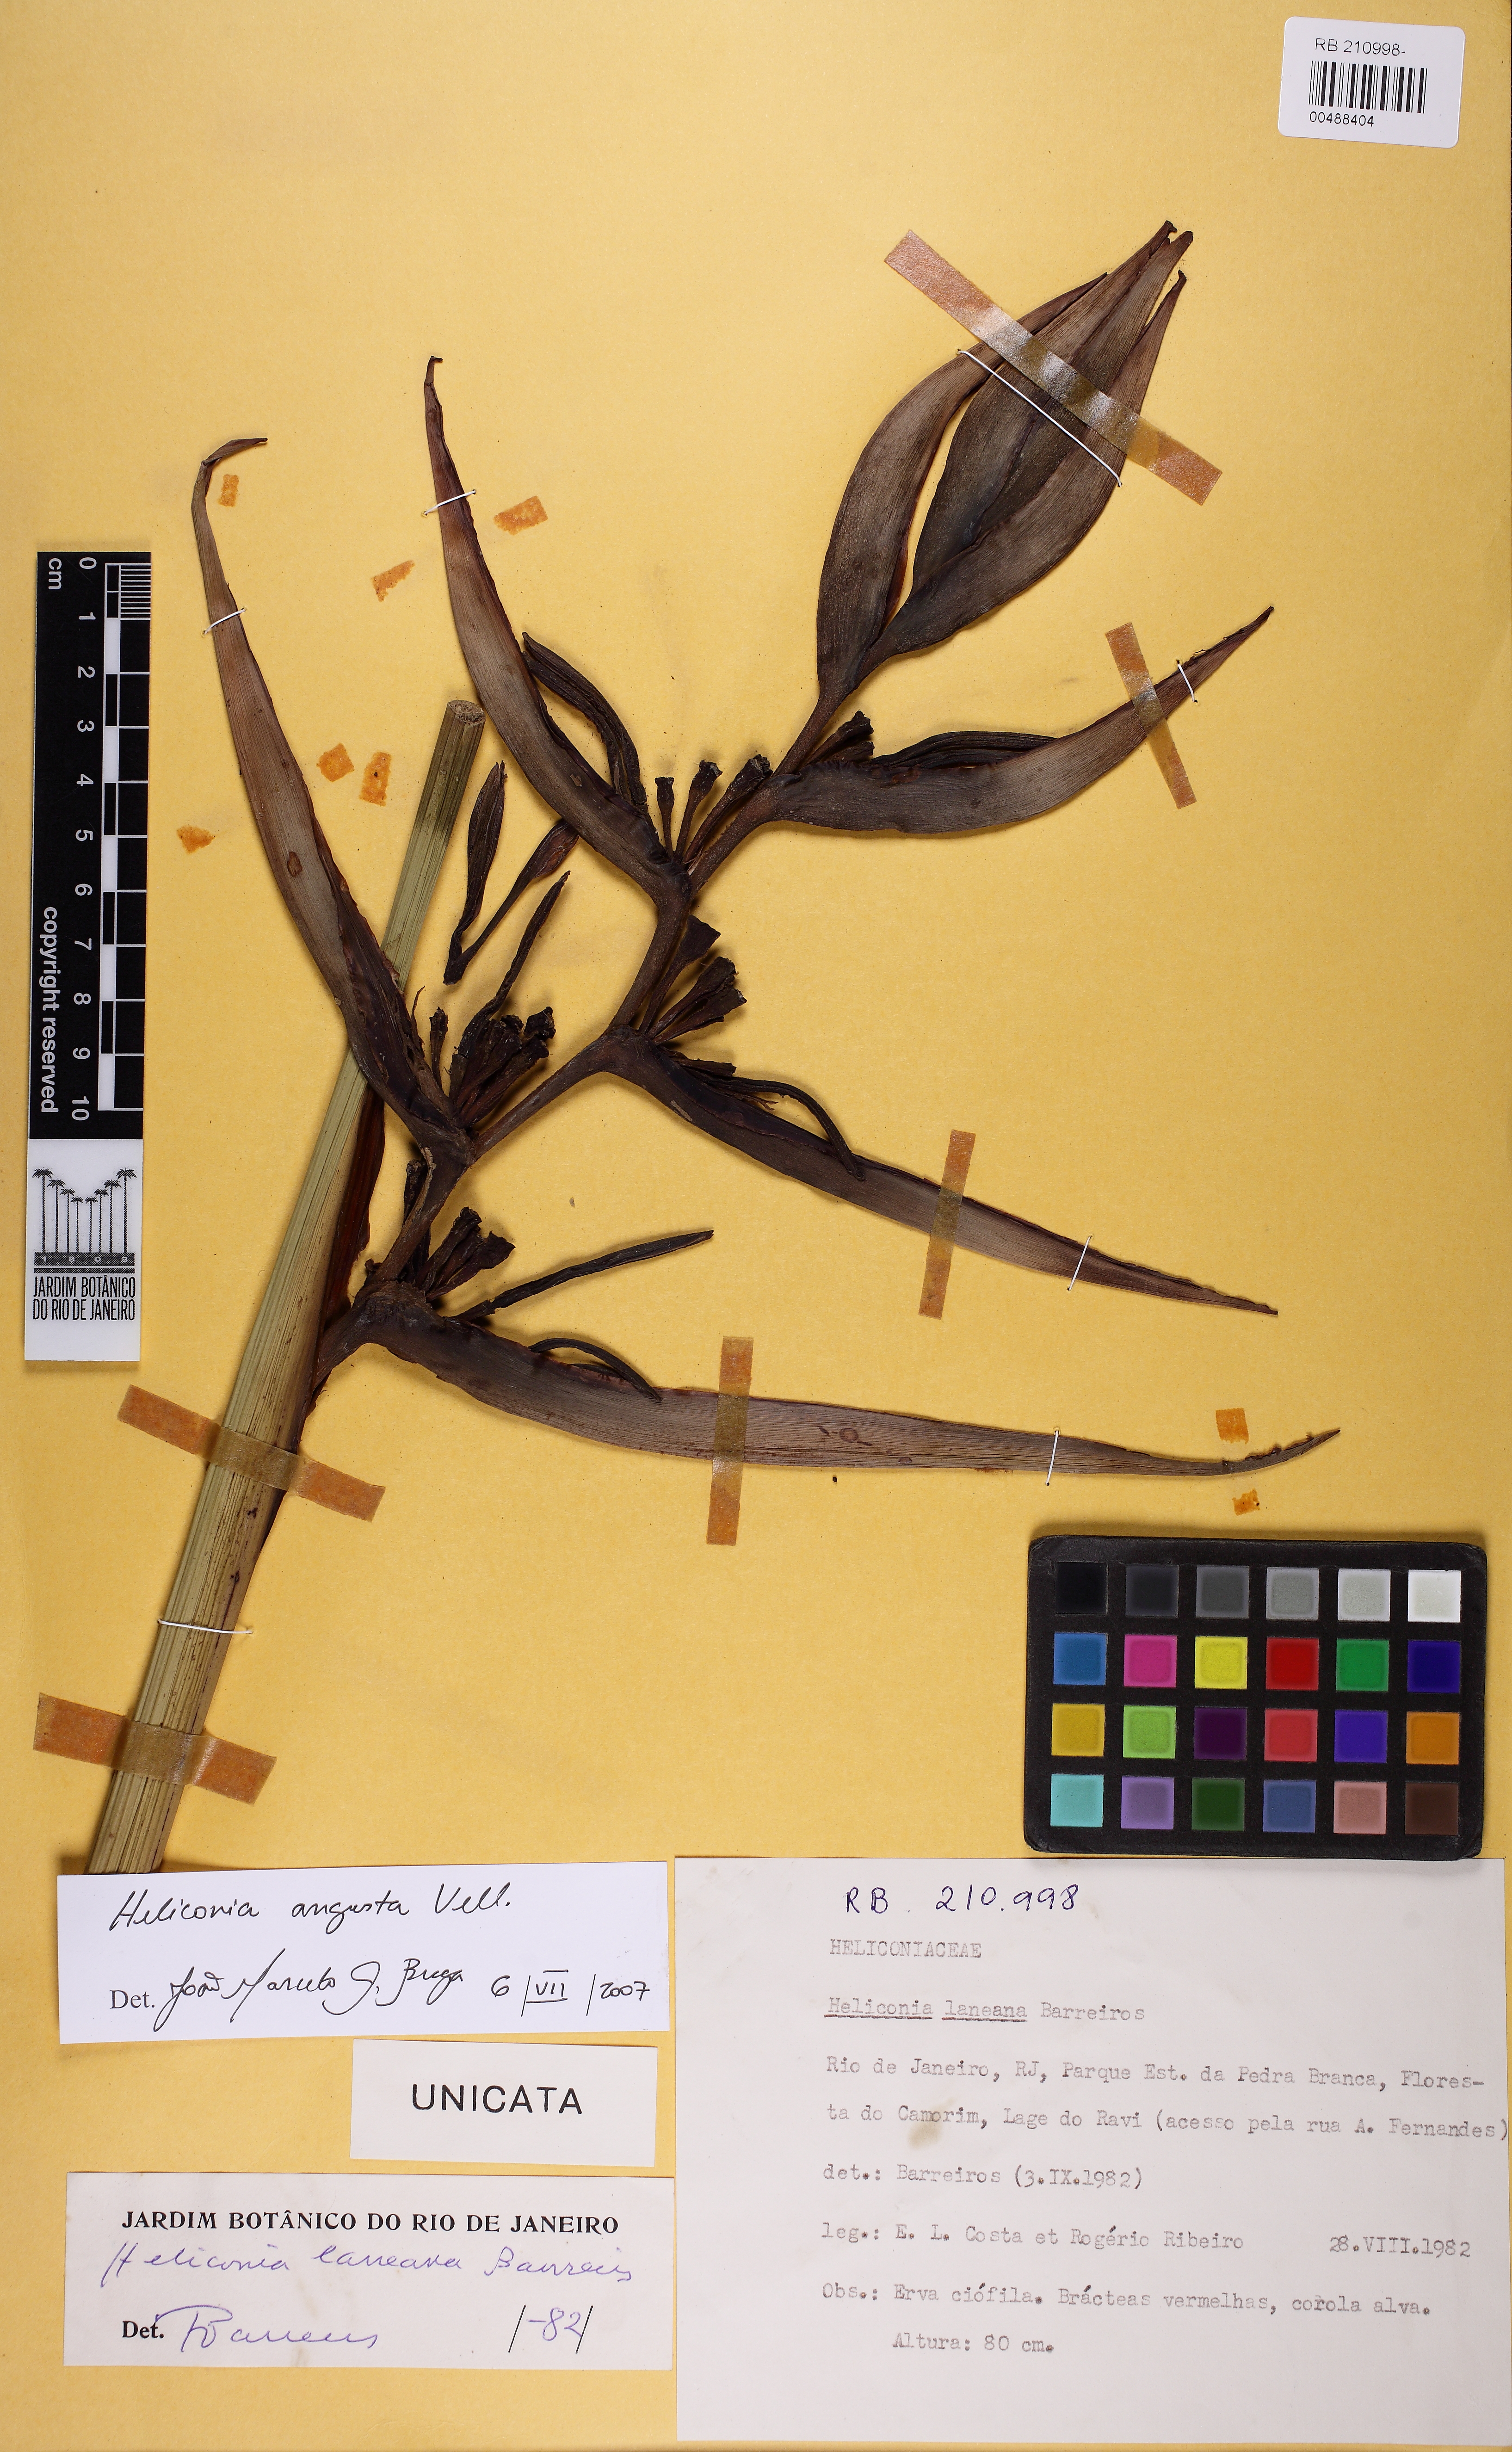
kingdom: Plantae
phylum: Tracheophyta
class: Liliopsida
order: Zingiberales
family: Heliconiaceae
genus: Heliconia
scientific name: Heliconia angusta
